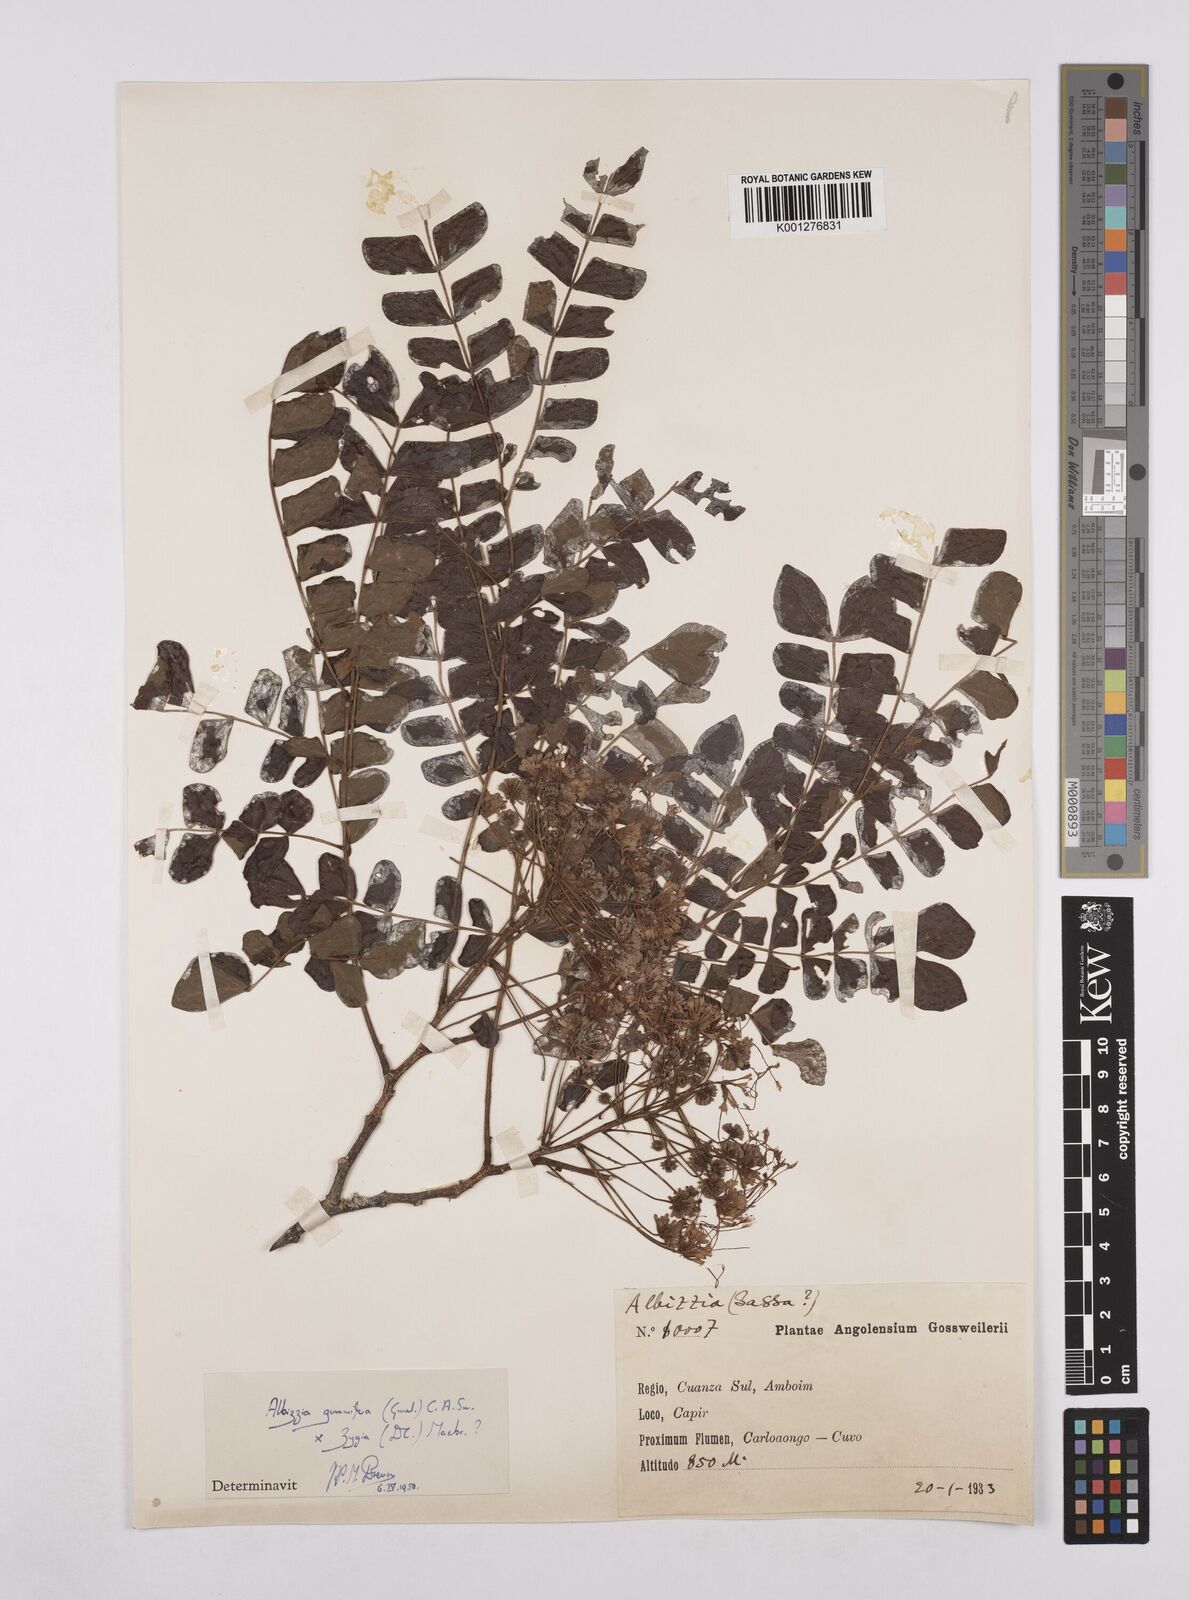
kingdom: Plantae
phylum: Tracheophyta
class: Magnoliopsida
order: Fabales
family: Fabaceae
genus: Albizia
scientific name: Albizia gummifera
